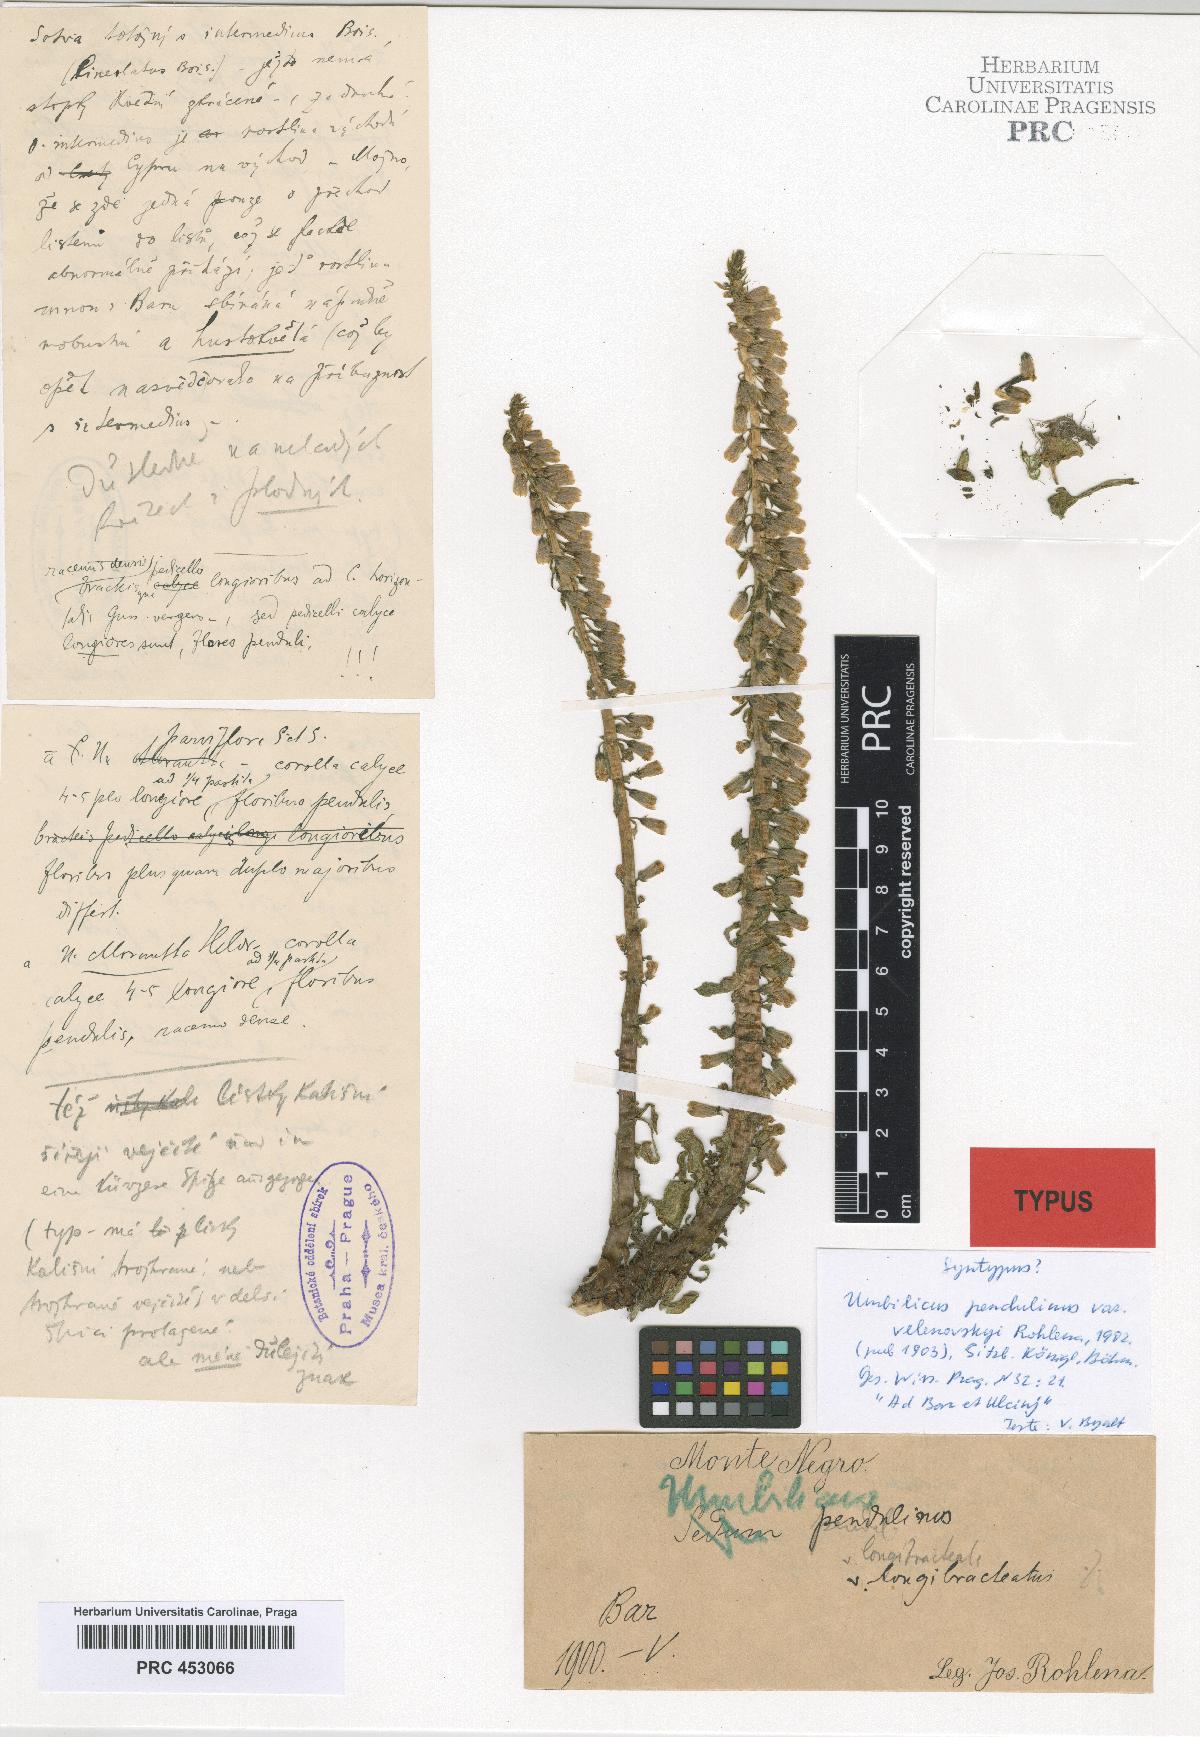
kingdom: Plantae
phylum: Tracheophyta
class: Magnoliopsida
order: Saxifragales
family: Crassulaceae
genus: Umbilicus
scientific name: Umbilicus rupestris
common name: Navelwort
